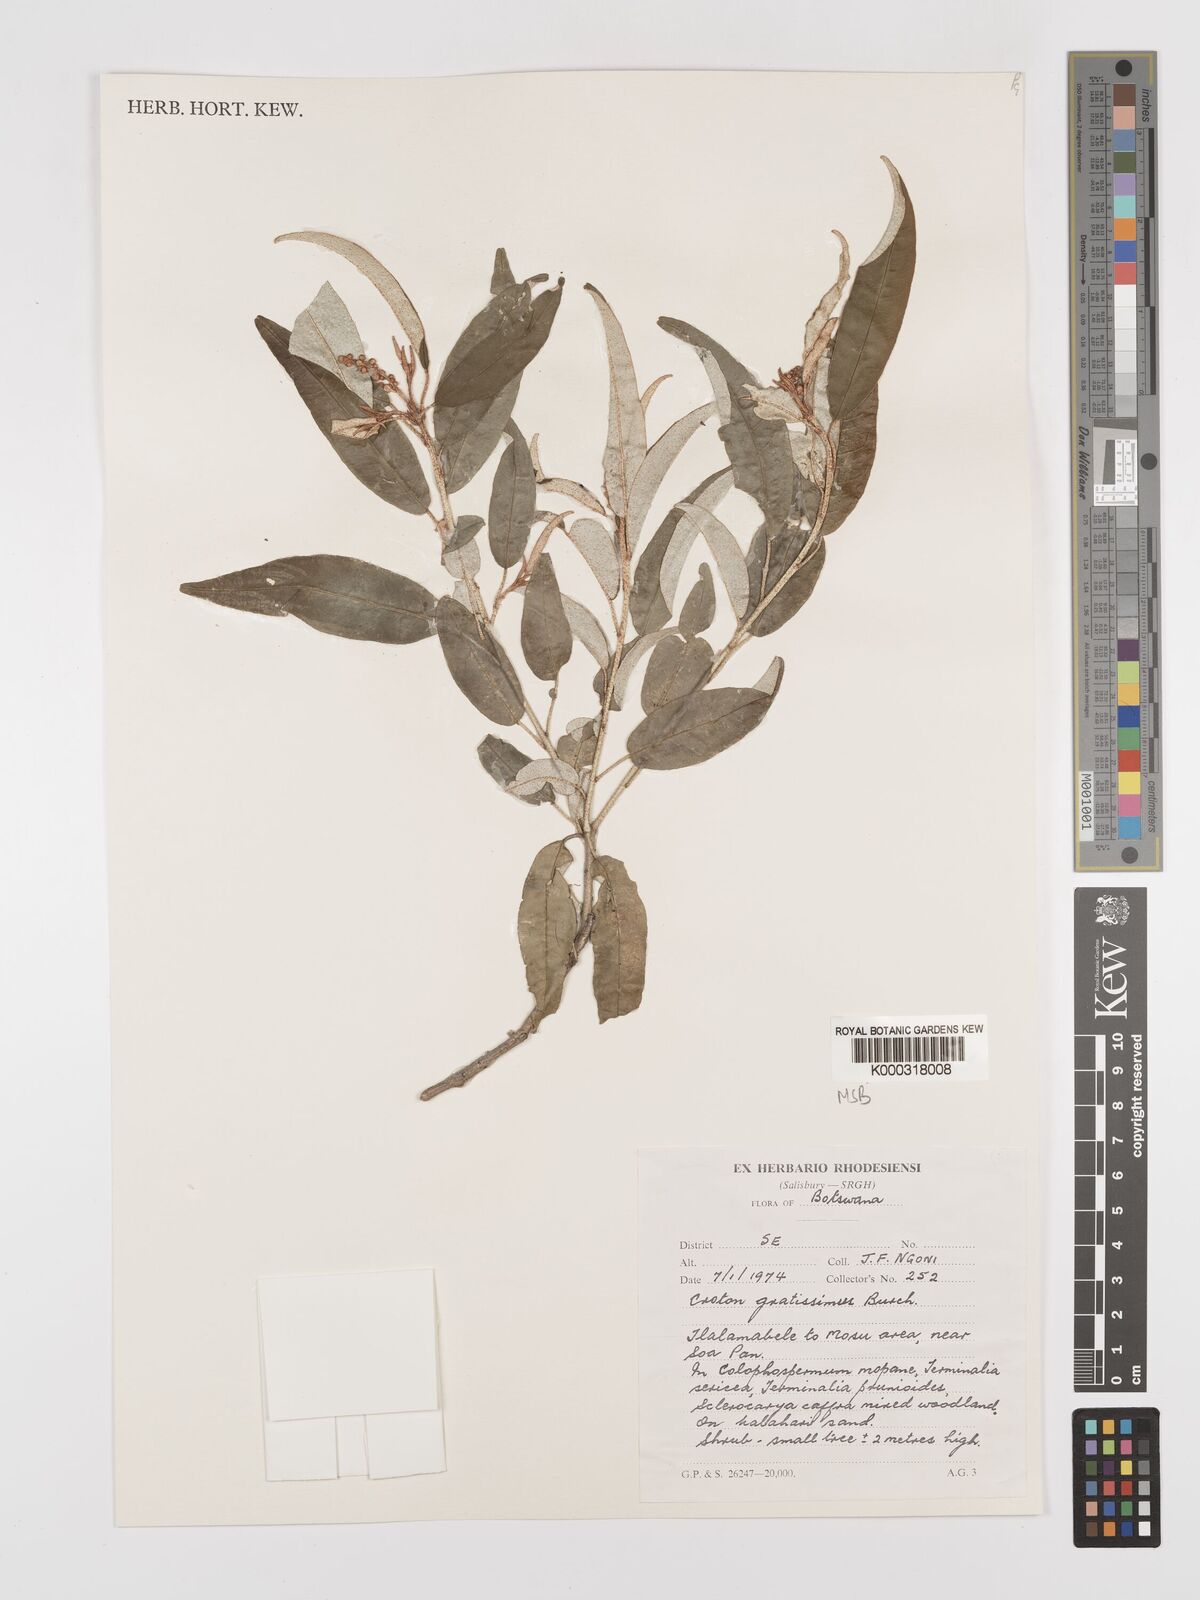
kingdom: Plantae
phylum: Tracheophyta
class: Magnoliopsida
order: Malpighiales
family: Euphorbiaceae
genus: Croton
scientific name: Croton gratissimus
